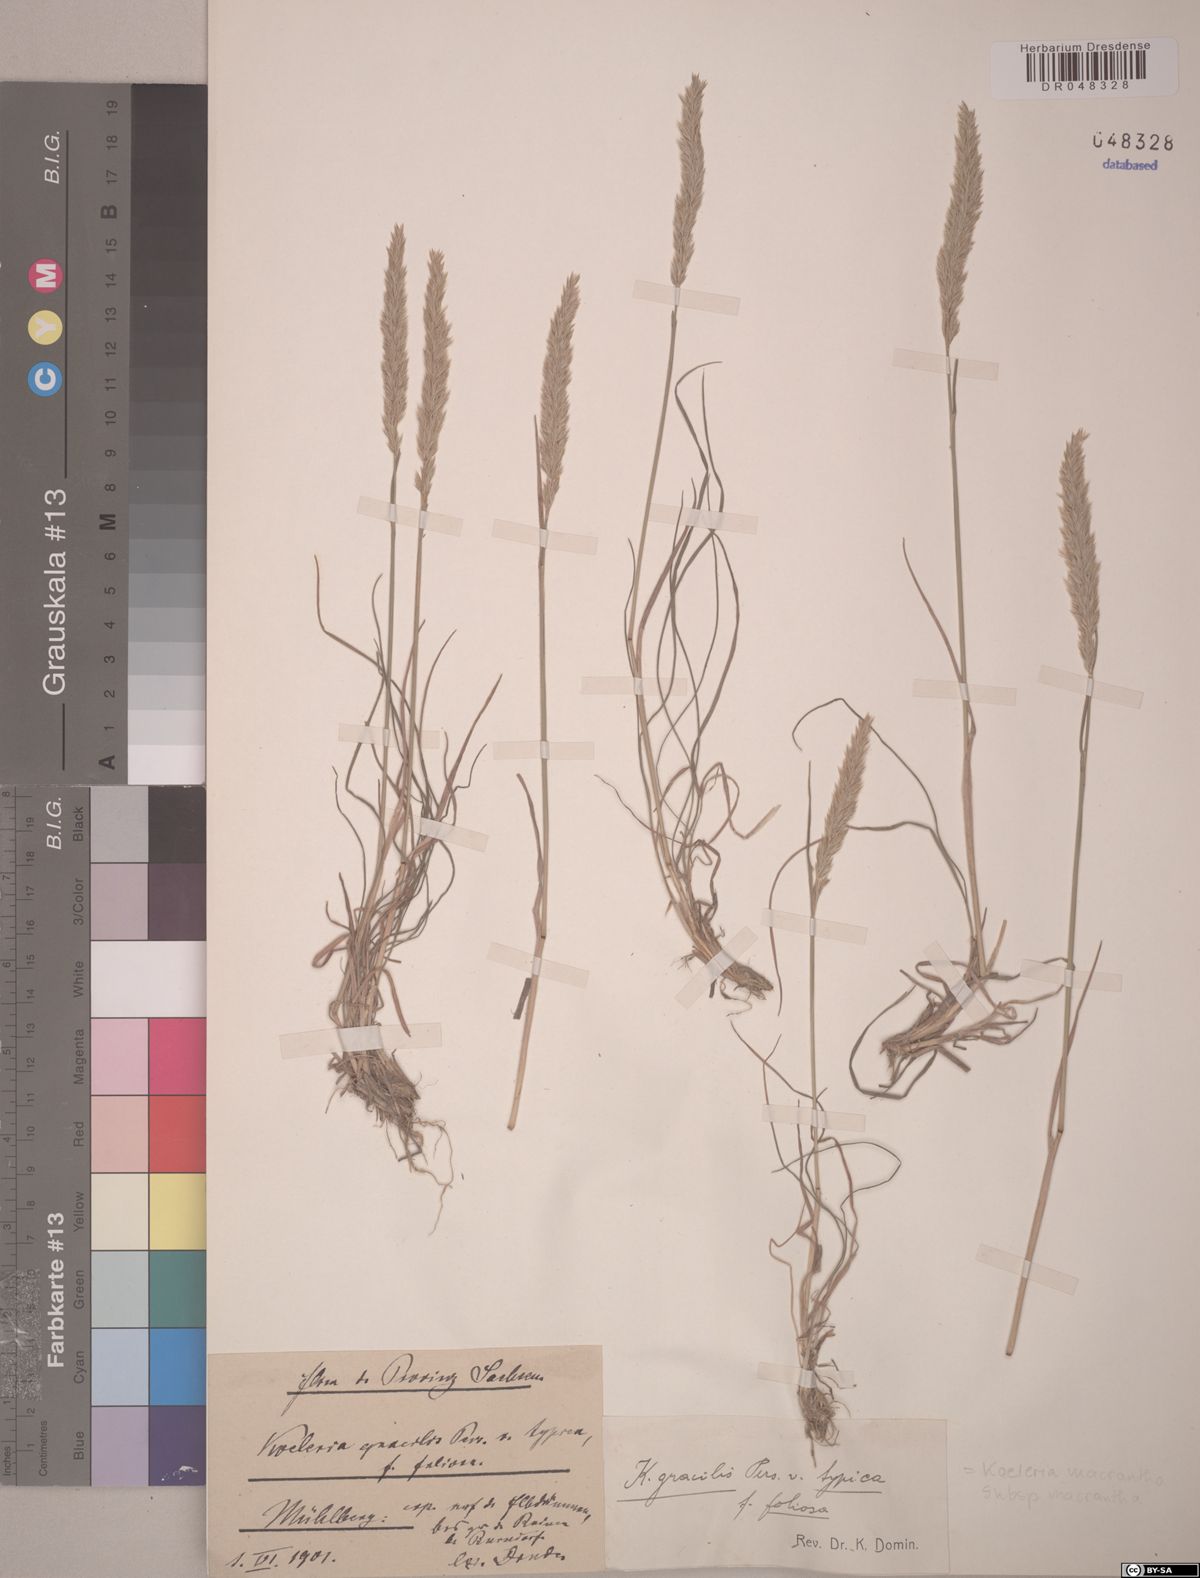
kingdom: Plantae
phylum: Tracheophyta
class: Liliopsida
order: Poales
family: Poaceae
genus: Koeleria
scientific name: Koeleria macrantha
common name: Crested hair-grass
